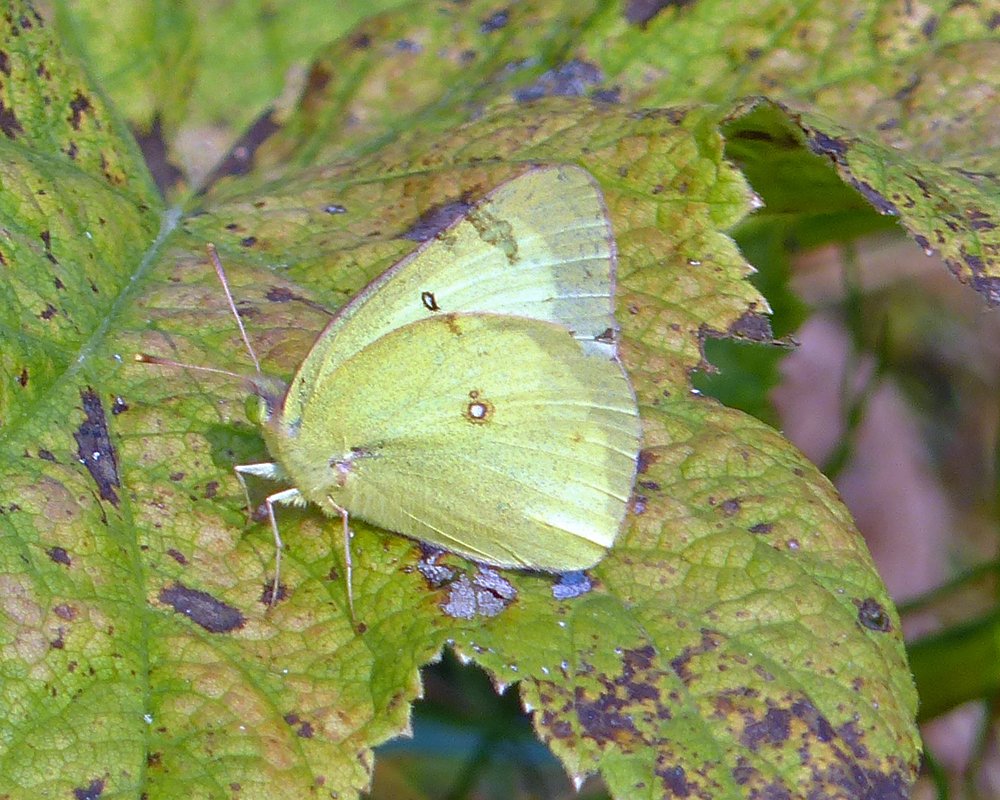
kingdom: Animalia
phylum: Arthropoda
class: Insecta
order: Lepidoptera
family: Pieridae
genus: Colias
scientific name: Colias philodice
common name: Clouded Sulphur
